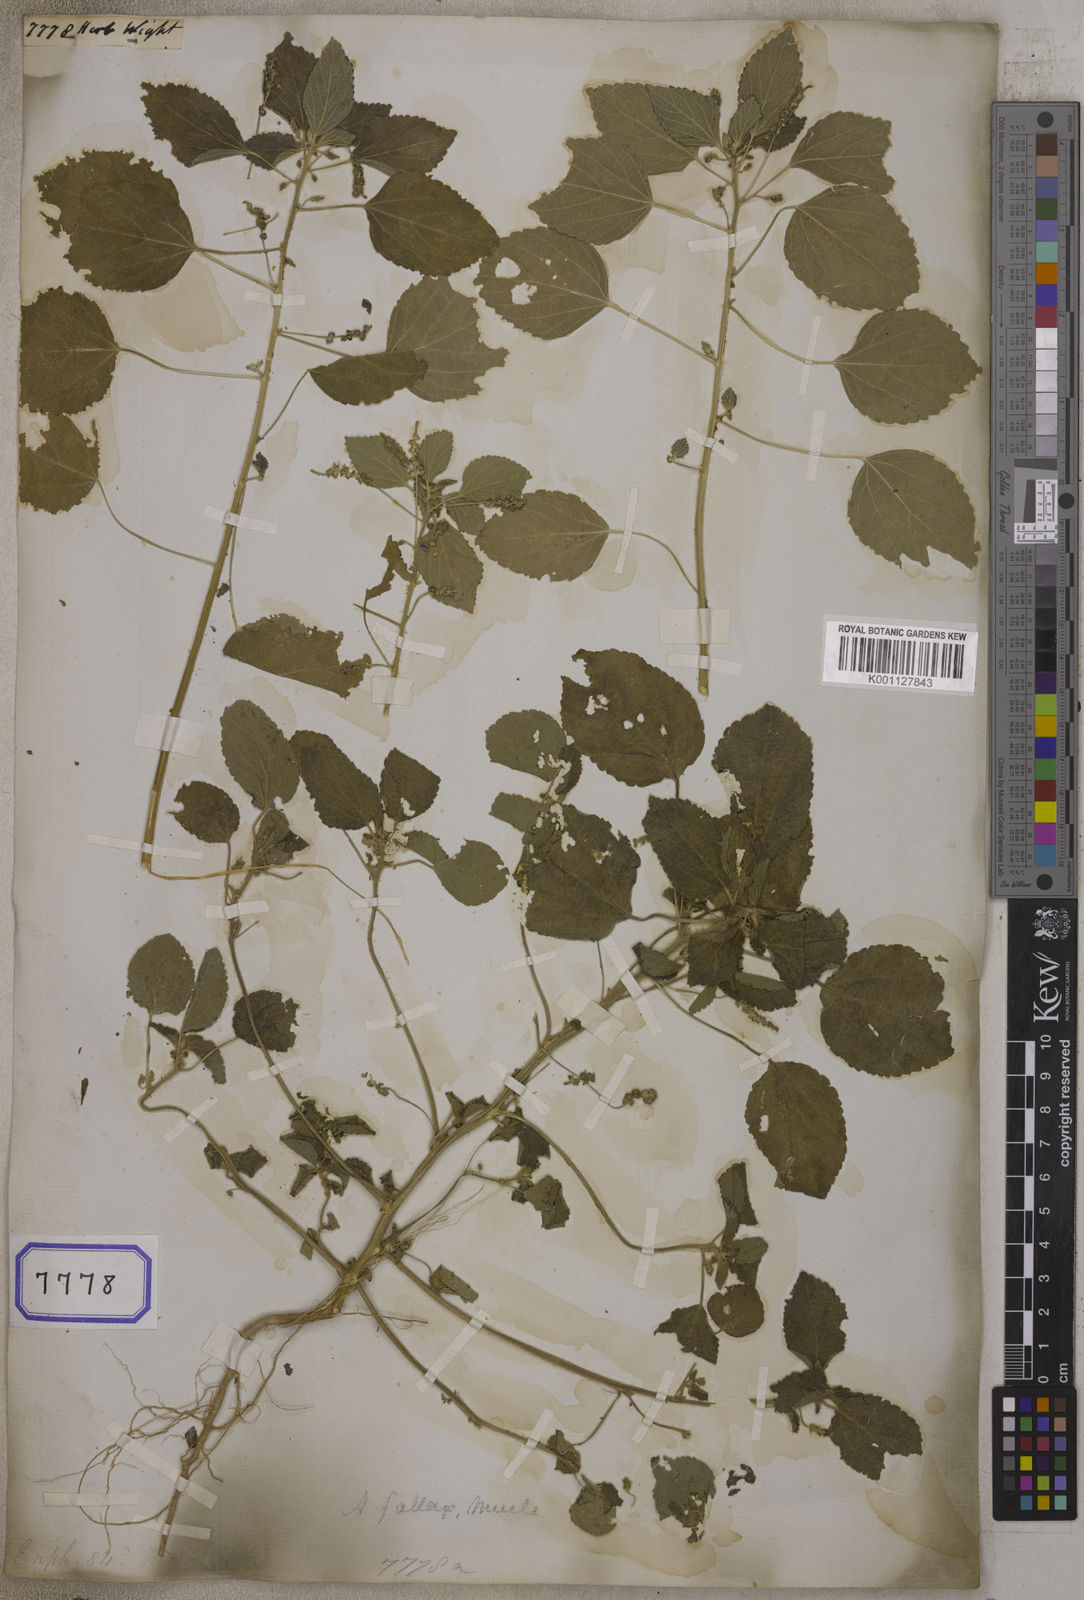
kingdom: Plantae
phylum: Tracheophyta
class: Magnoliopsida
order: Malpighiales
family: Euphorbiaceae
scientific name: Euphorbiaceae
